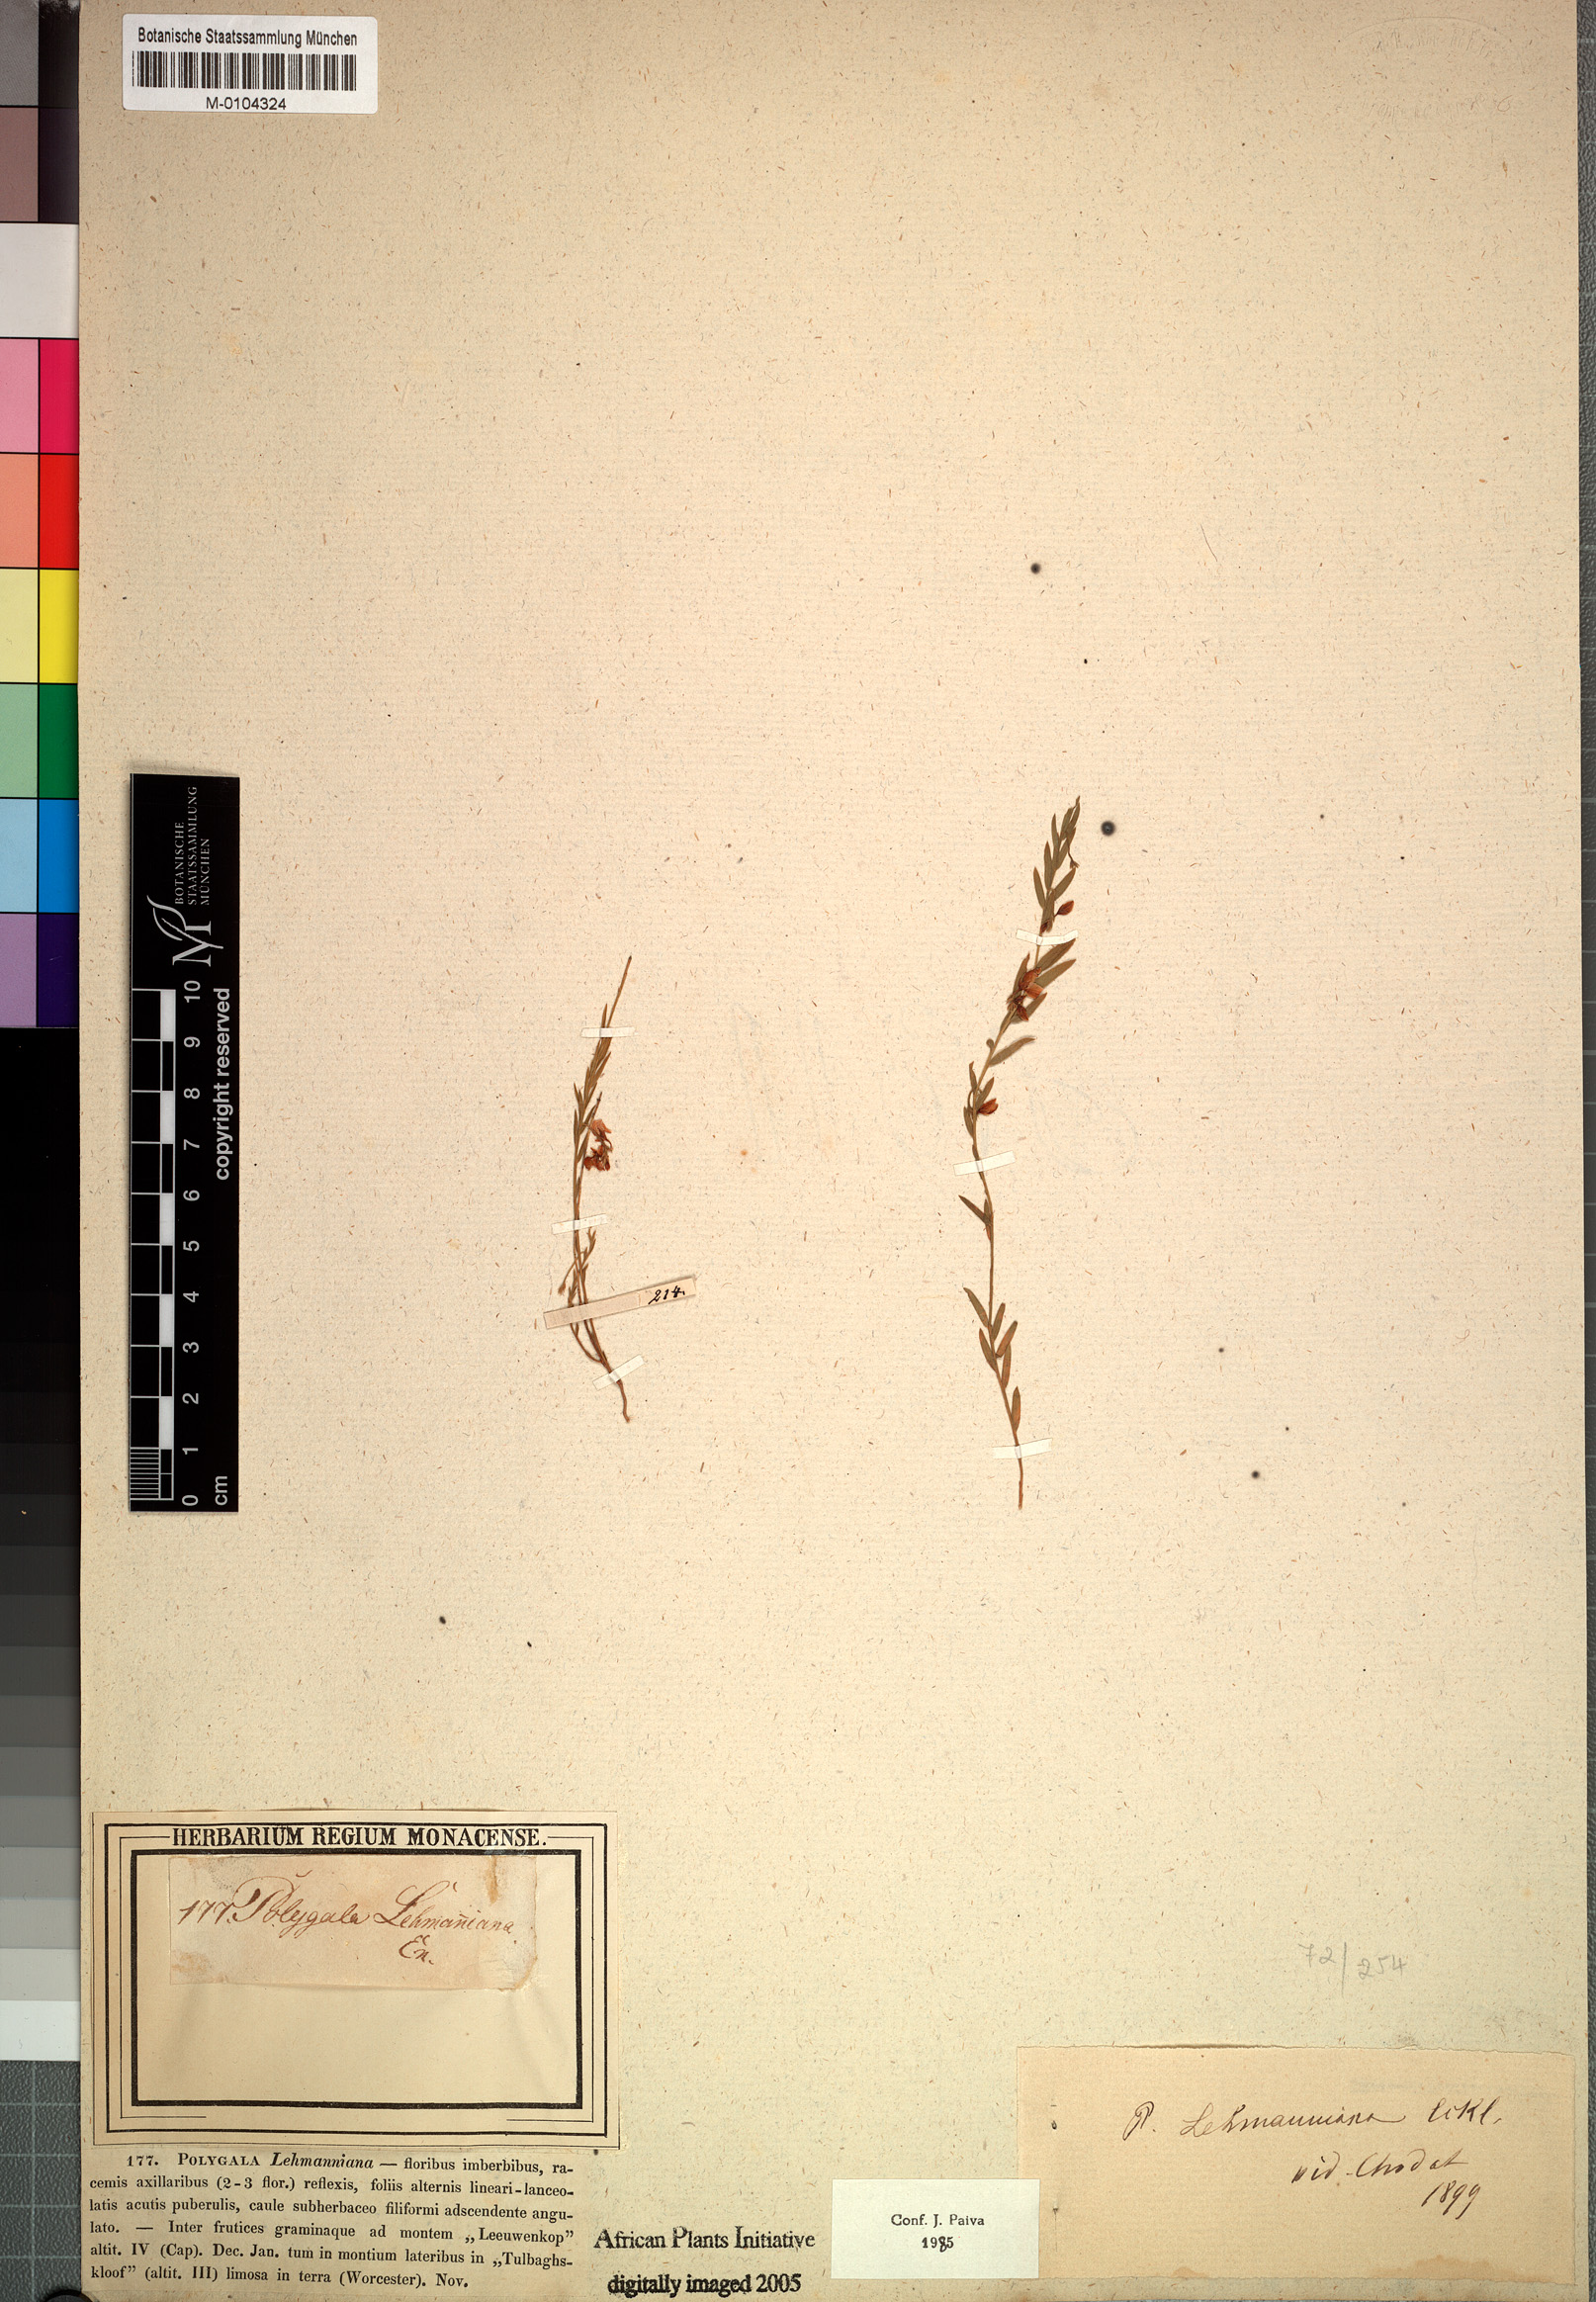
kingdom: Plantae
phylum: Tracheophyta
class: Magnoliopsida
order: Fabales
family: Polygalaceae
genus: Polygala
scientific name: Polygala lehmanniana
